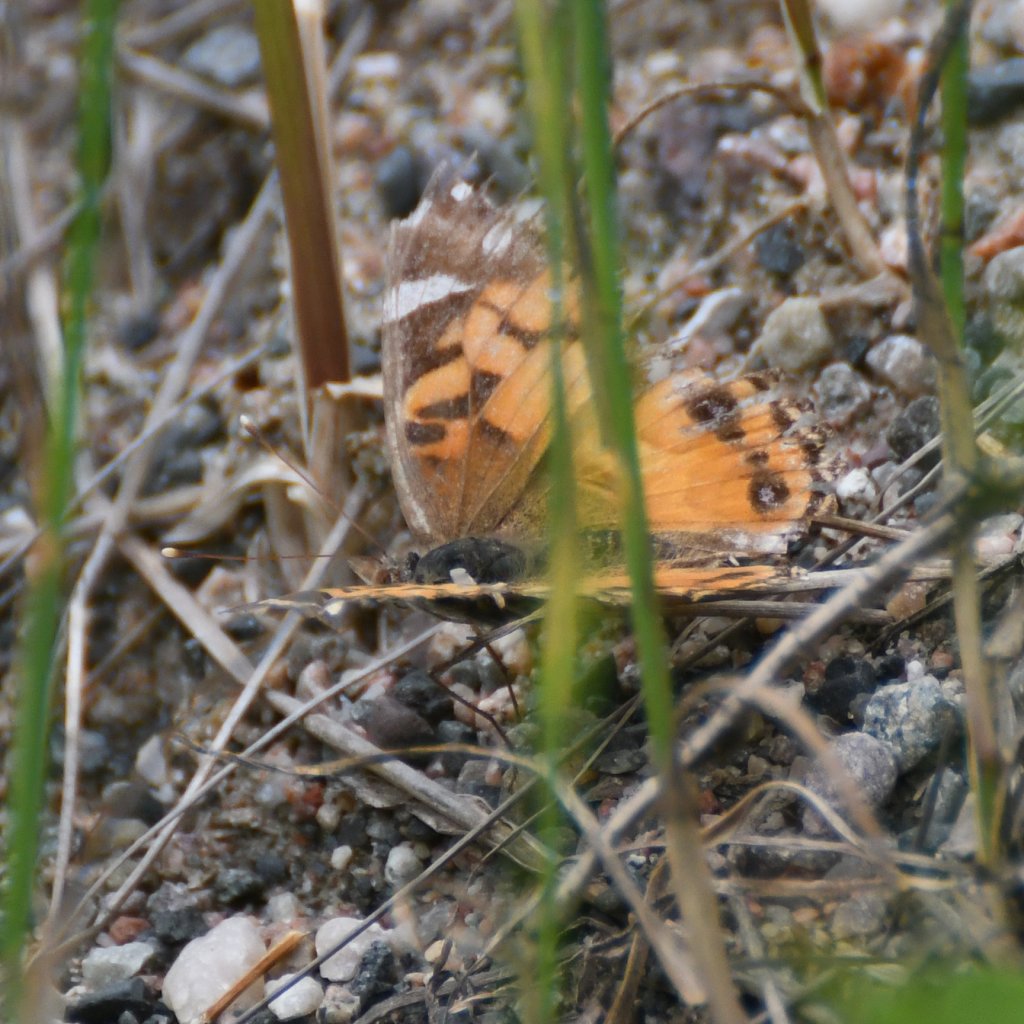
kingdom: Animalia
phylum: Arthropoda
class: Insecta
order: Lepidoptera
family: Nymphalidae
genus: Vanessa
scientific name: Vanessa virginiensis
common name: American Lady
